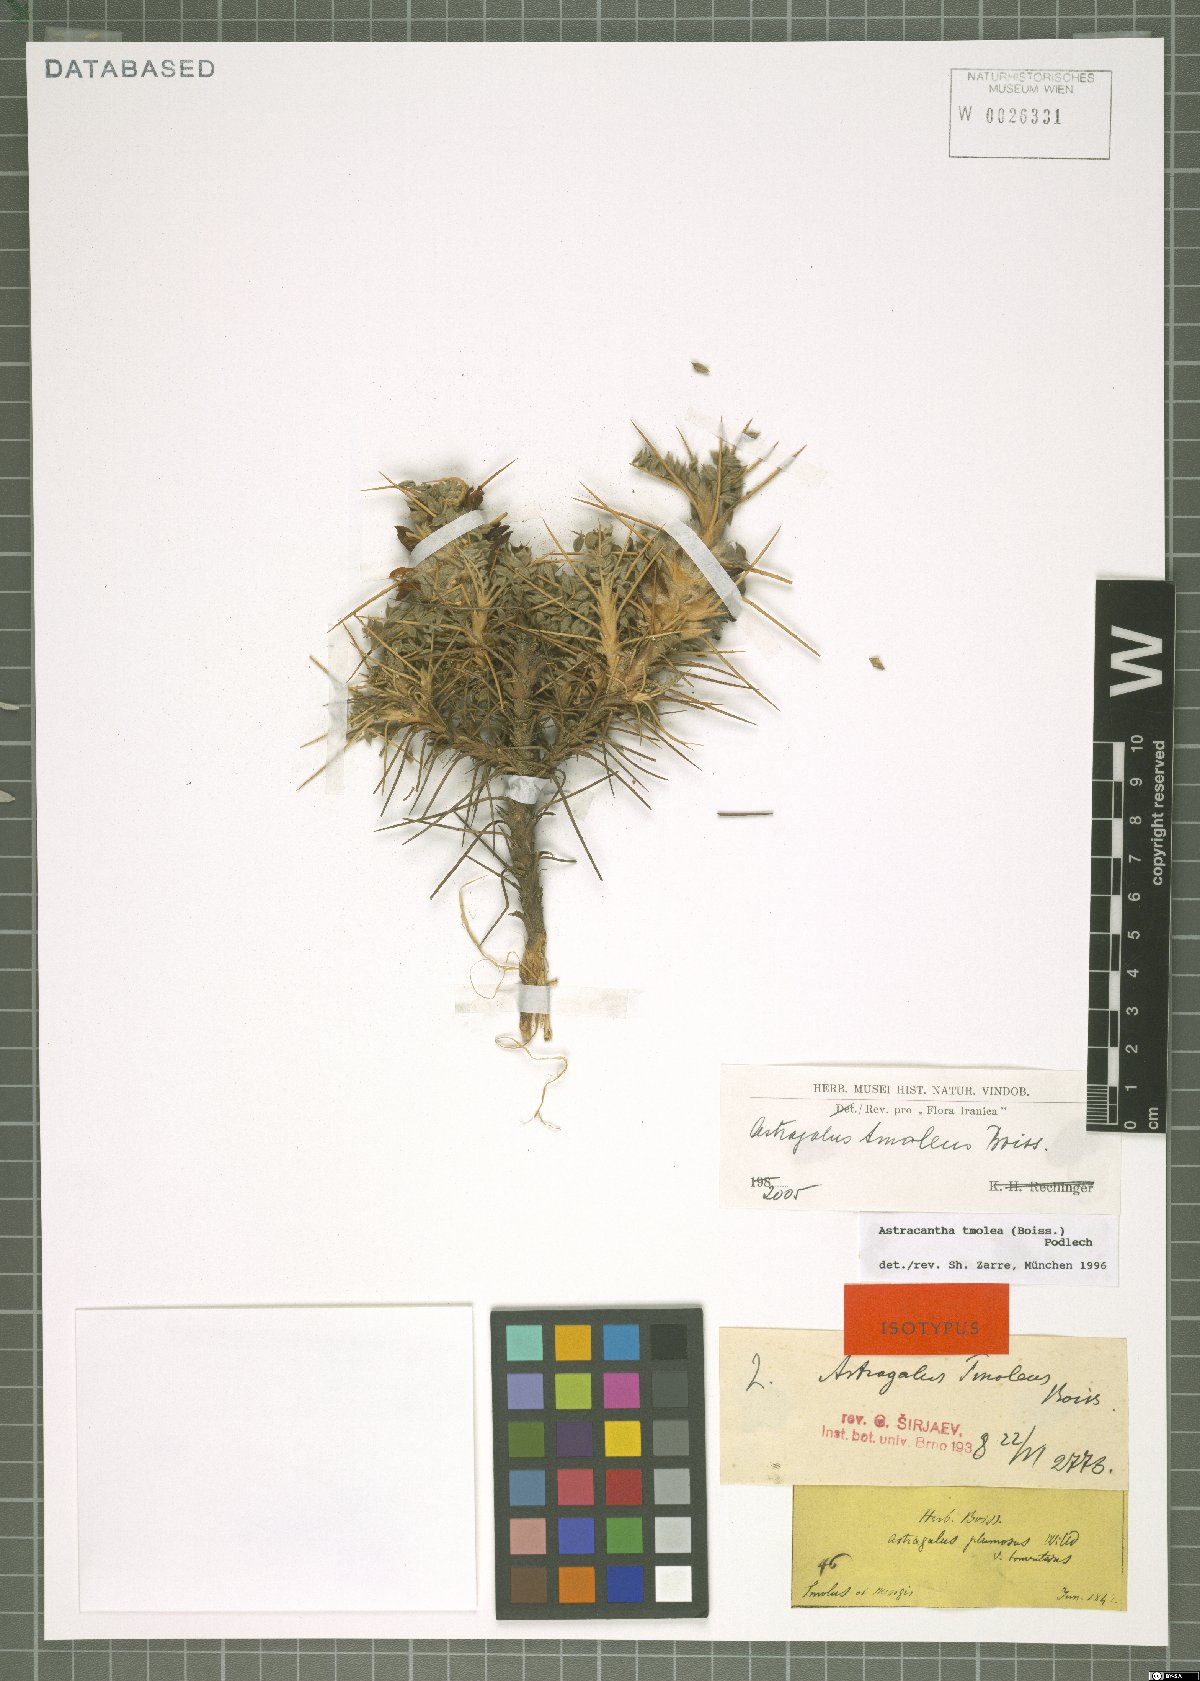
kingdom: Plantae
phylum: Tracheophyta
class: Magnoliopsida
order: Fabales
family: Fabaceae
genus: Astragalus
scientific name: Astragalus tmoleus
